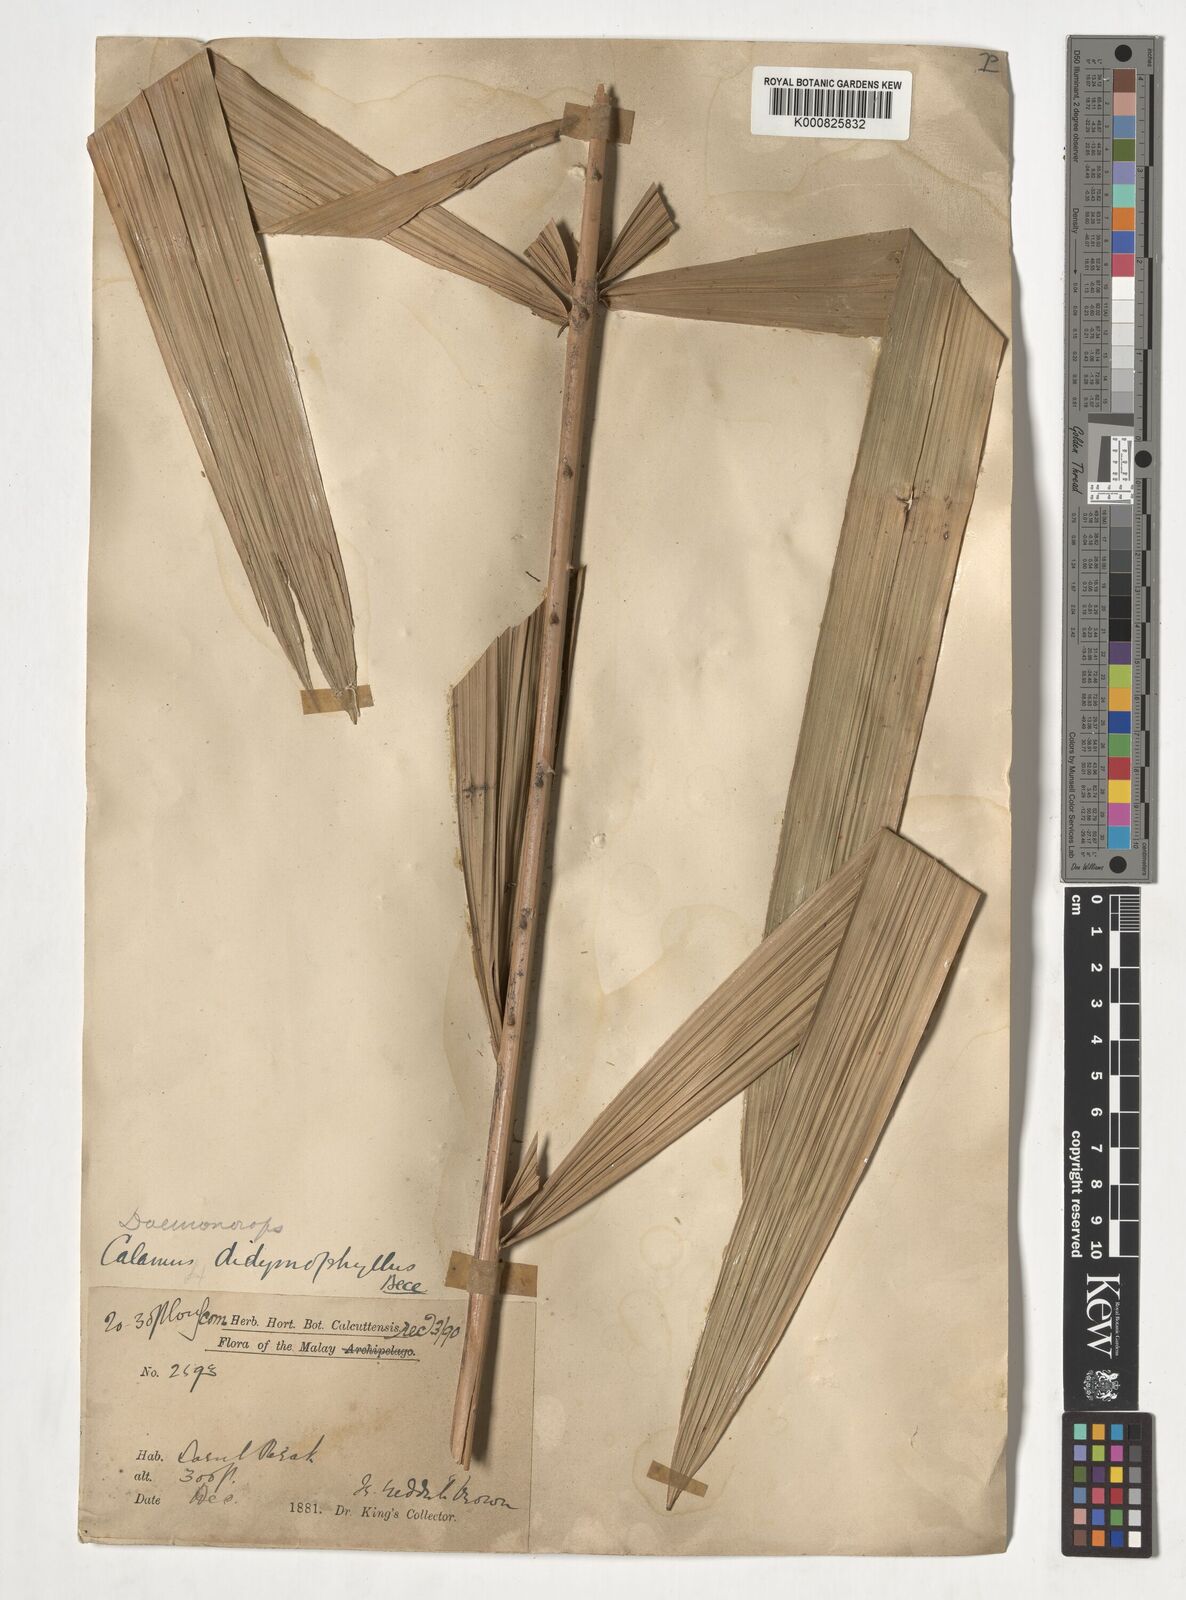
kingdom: Plantae
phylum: Tracheophyta
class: Liliopsida
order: Arecales
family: Arecaceae
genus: Calamus
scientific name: Calamus gracilipes
